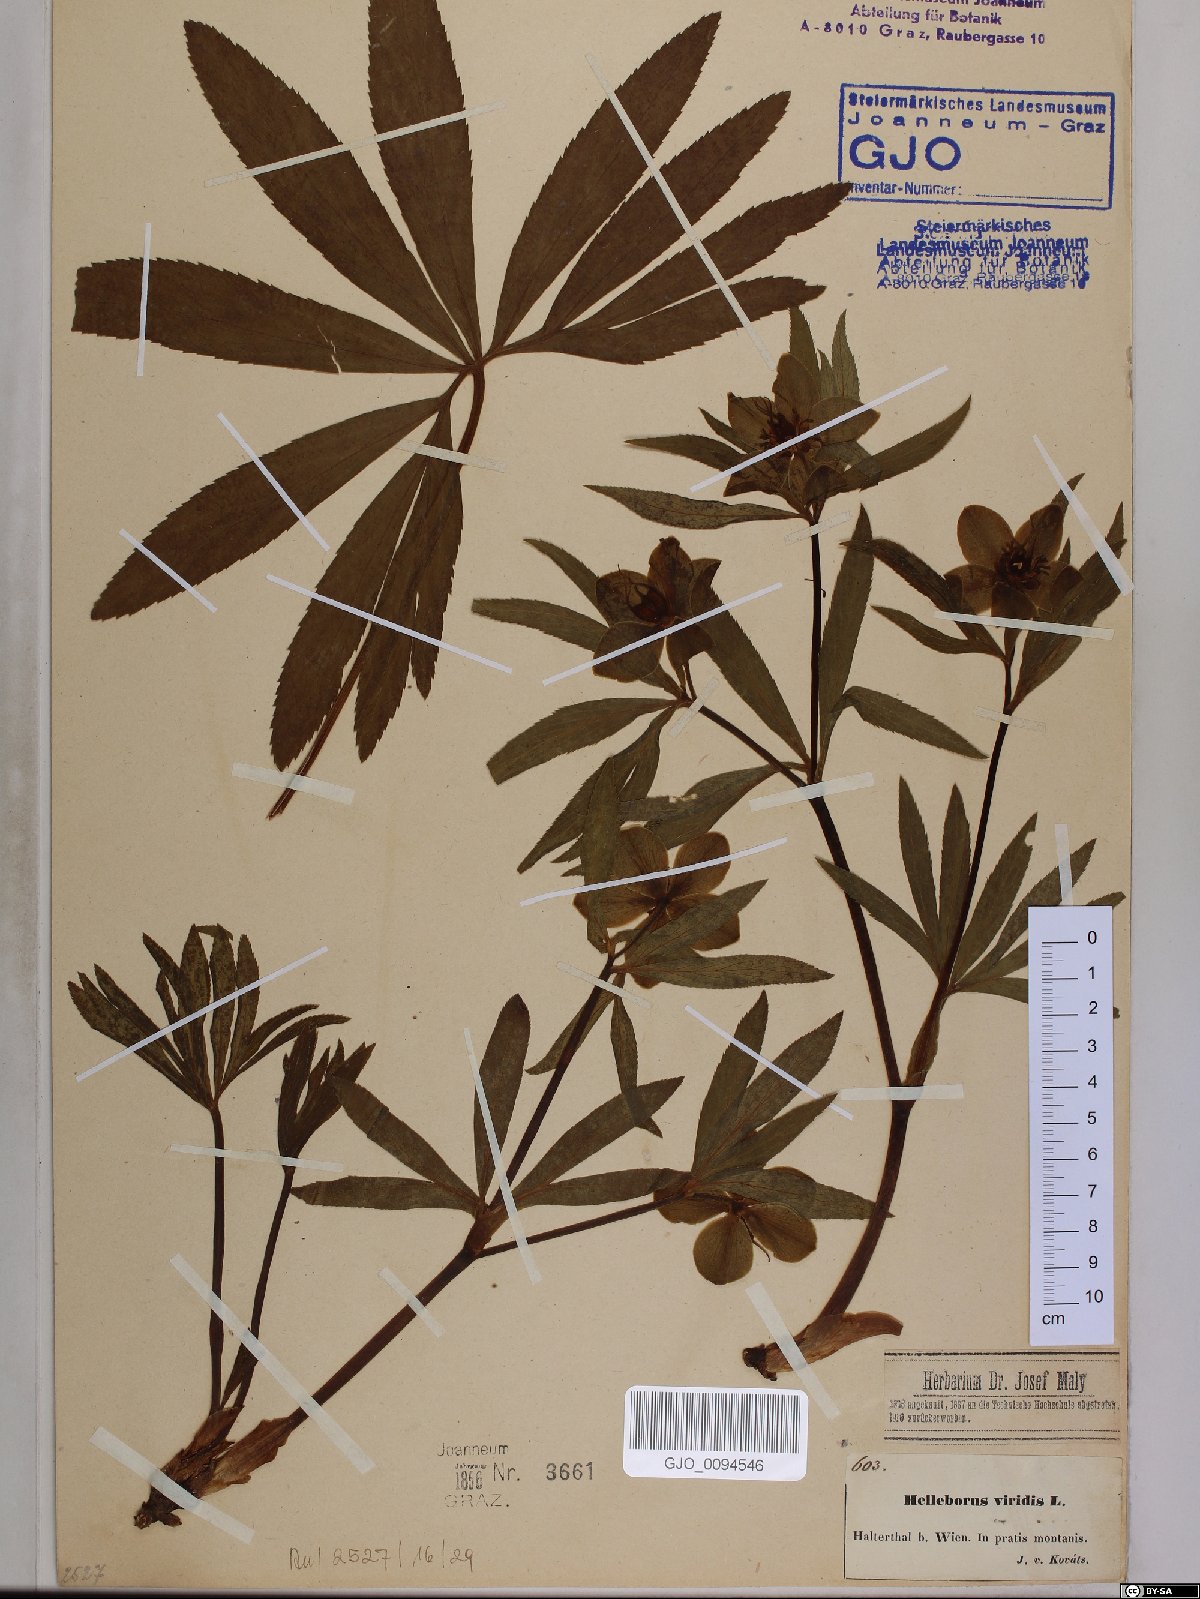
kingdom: Plantae
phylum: Tracheophyta
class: Magnoliopsida
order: Ranunculales
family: Ranunculaceae
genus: Helleborus
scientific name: Helleborus viridis
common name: Green hellebore
